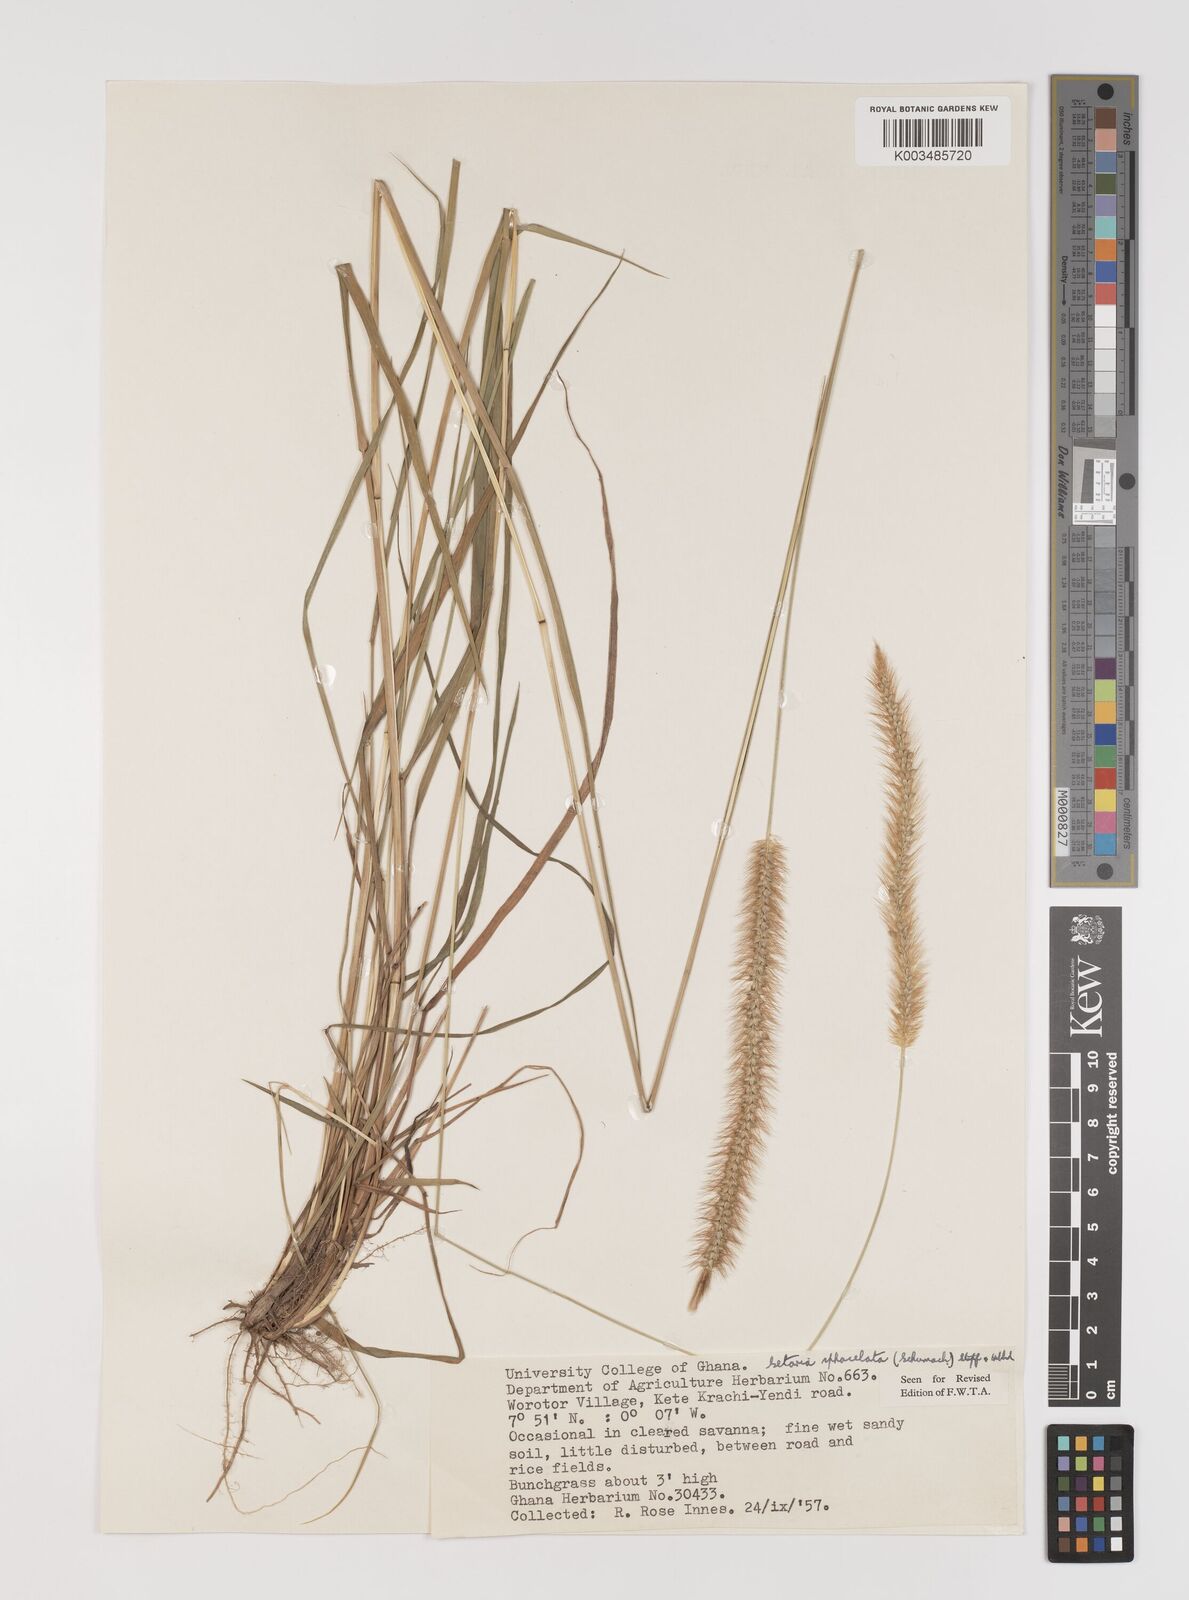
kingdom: Plantae
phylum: Tracheophyta
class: Liliopsida
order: Poales
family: Poaceae
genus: Setaria
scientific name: Setaria sphacelata
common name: African bristlegrass
